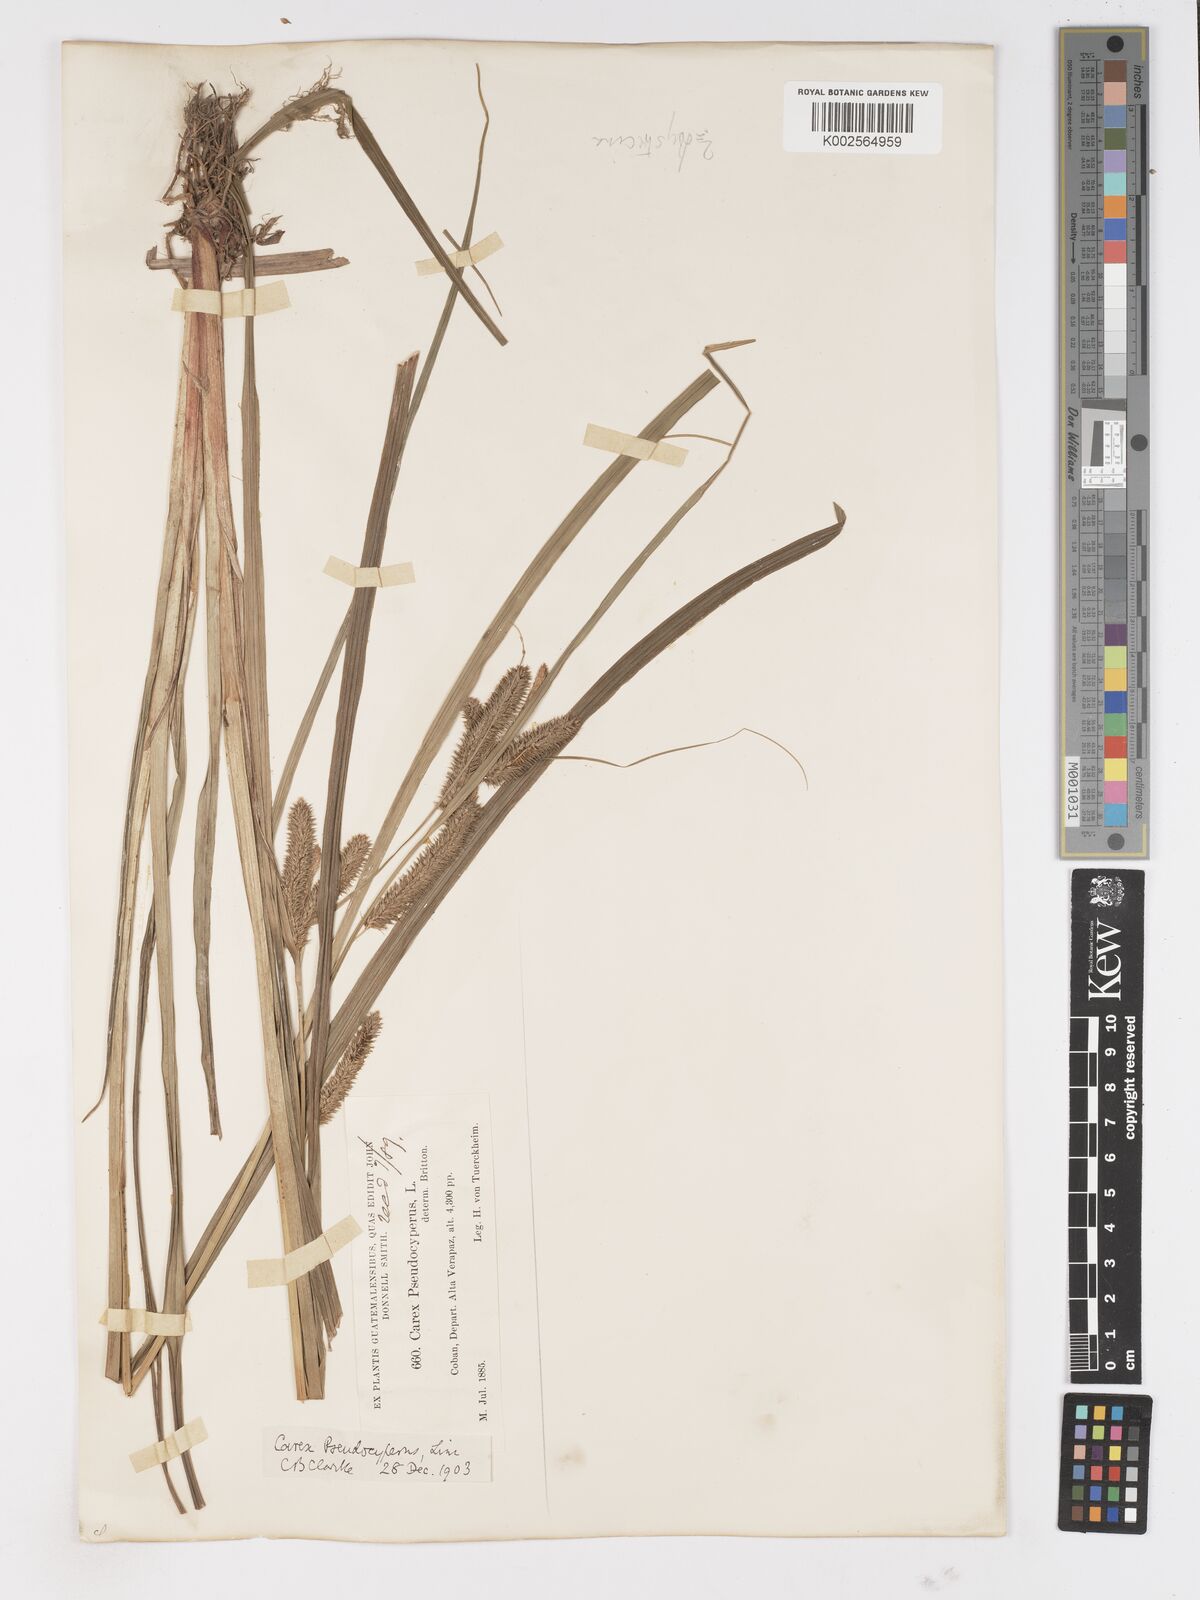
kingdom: Plantae
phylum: Tracheophyta
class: Liliopsida
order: Poales
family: Cyperaceae
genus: Carex
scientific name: Carex thurberi
